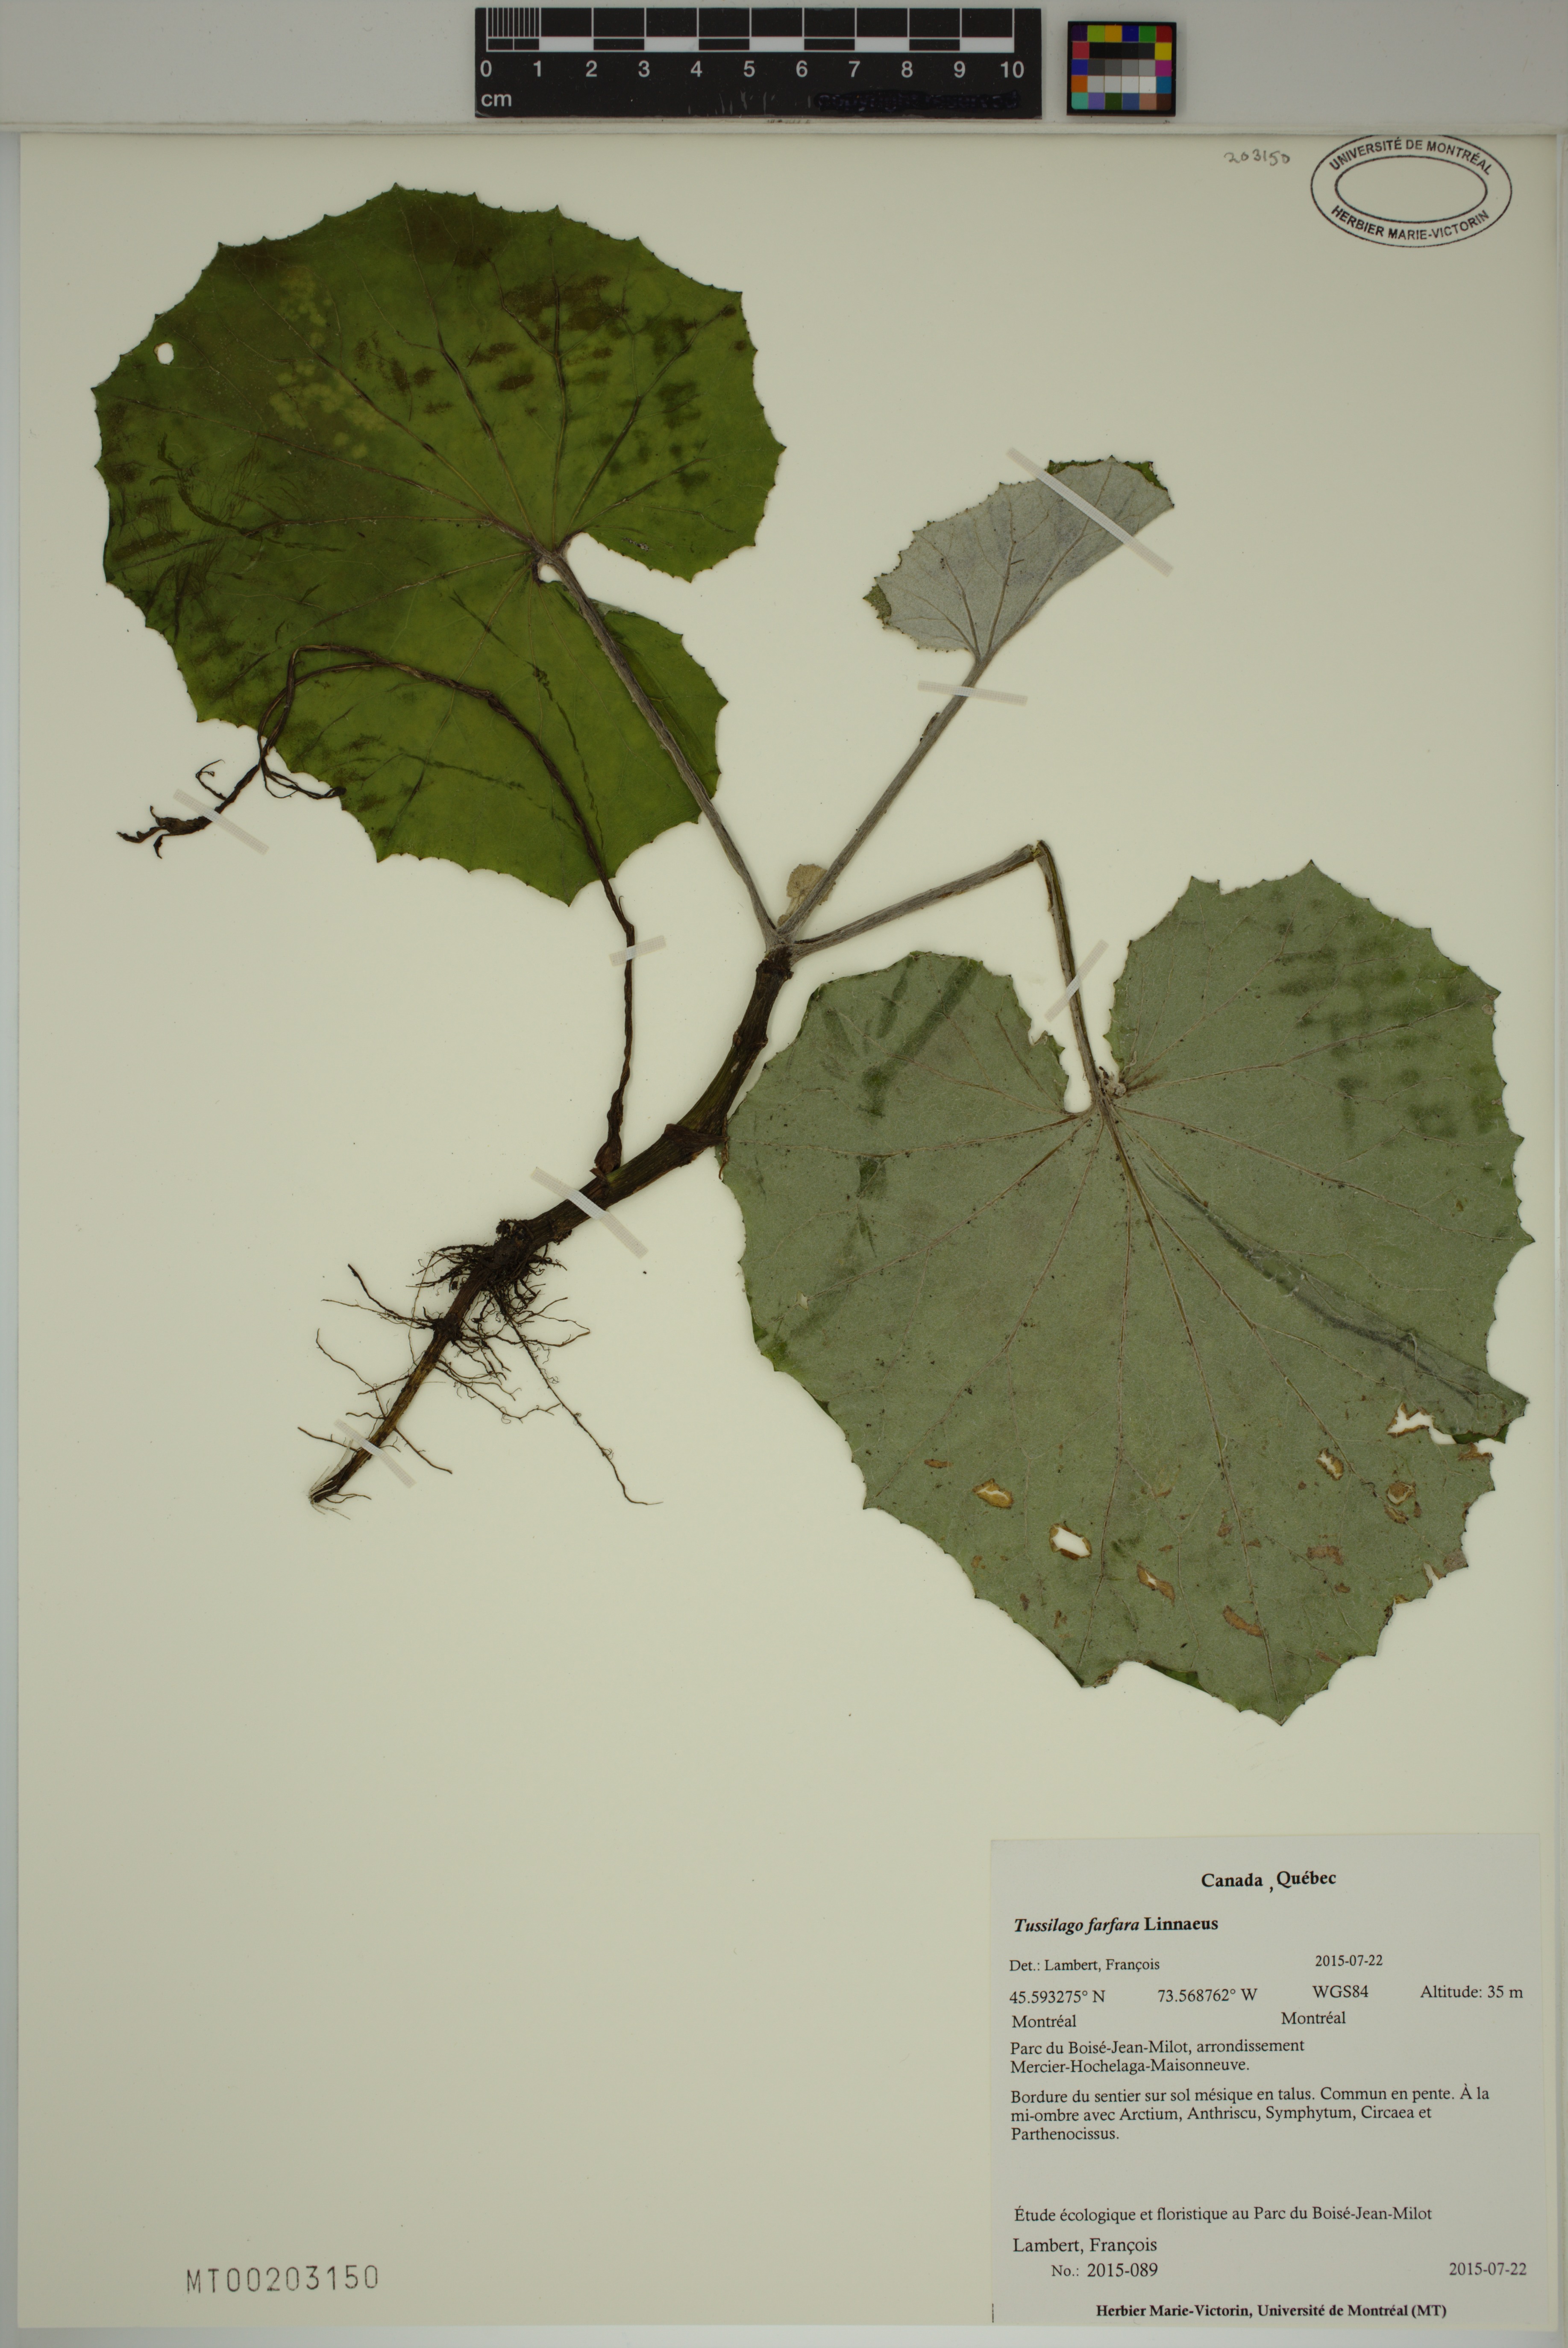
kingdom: Plantae
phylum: Tracheophyta
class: Magnoliopsida
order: Asterales
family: Asteraceae
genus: Tussilago
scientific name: Tussilago farfara
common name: Coltsfoot
